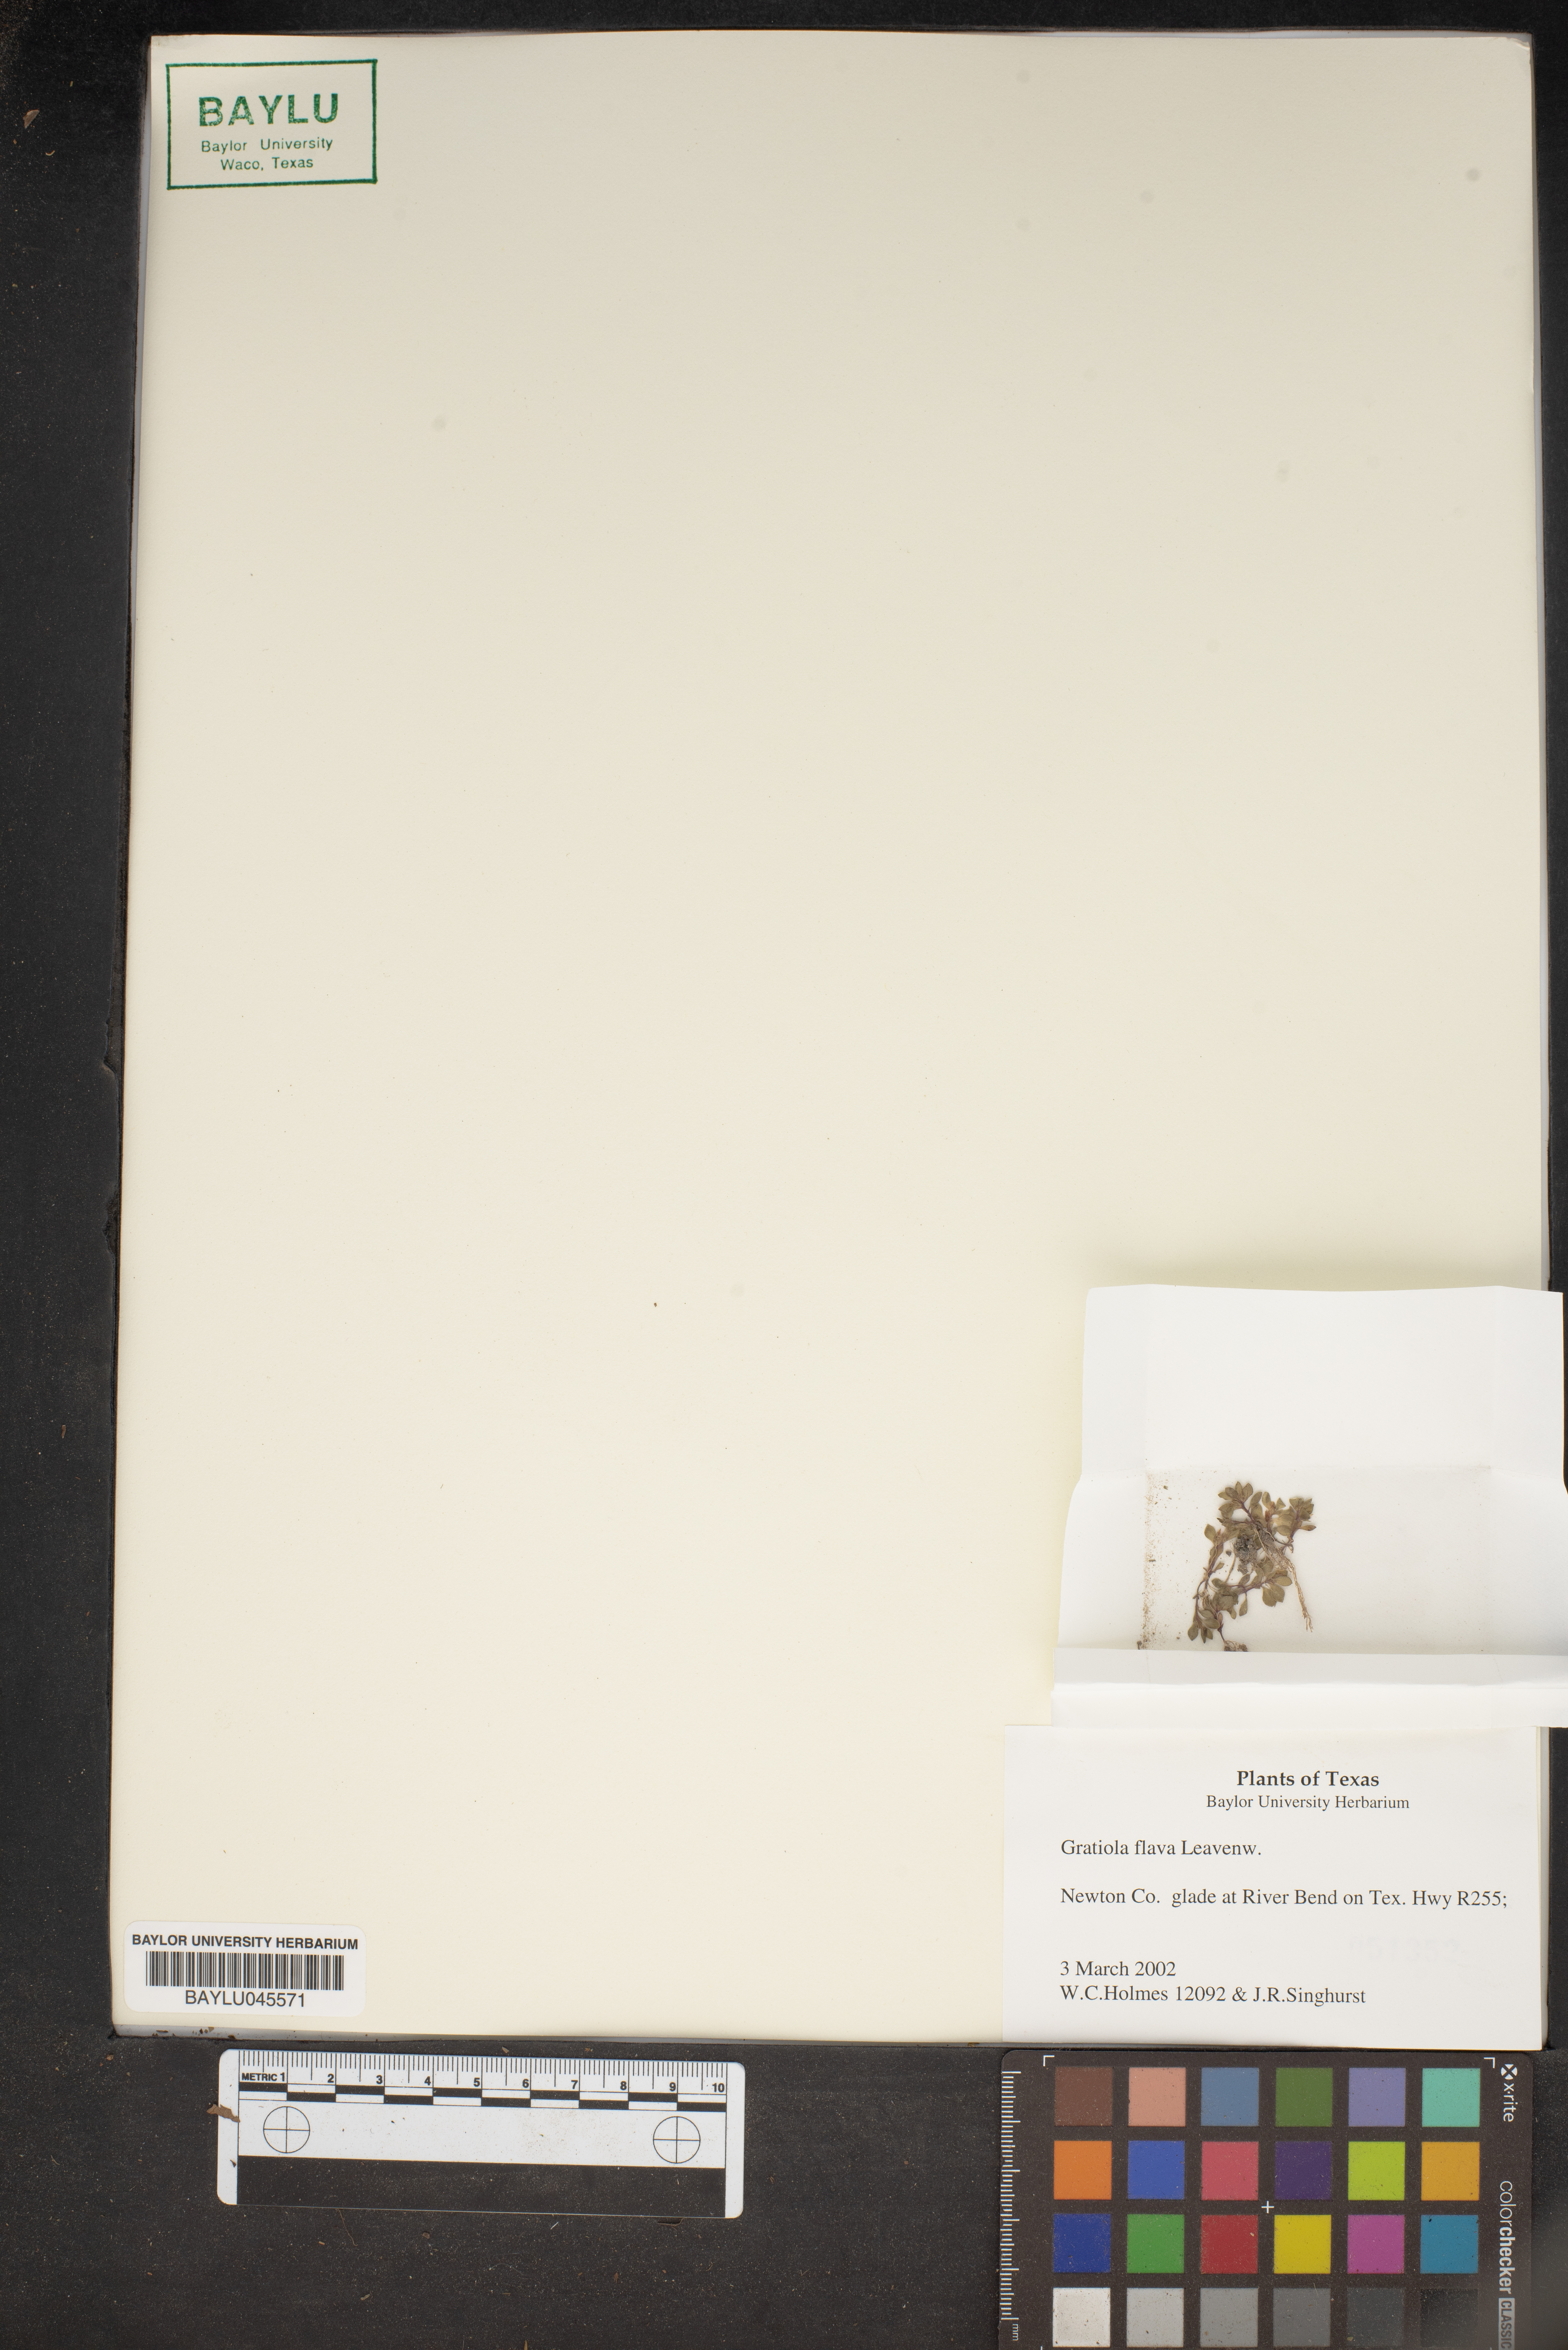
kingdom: Plantae
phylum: Tracheophyta
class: Magnoliopsida
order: Lamiales
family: Plantaginaceae
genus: Gratiola
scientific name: Gratiola flava
